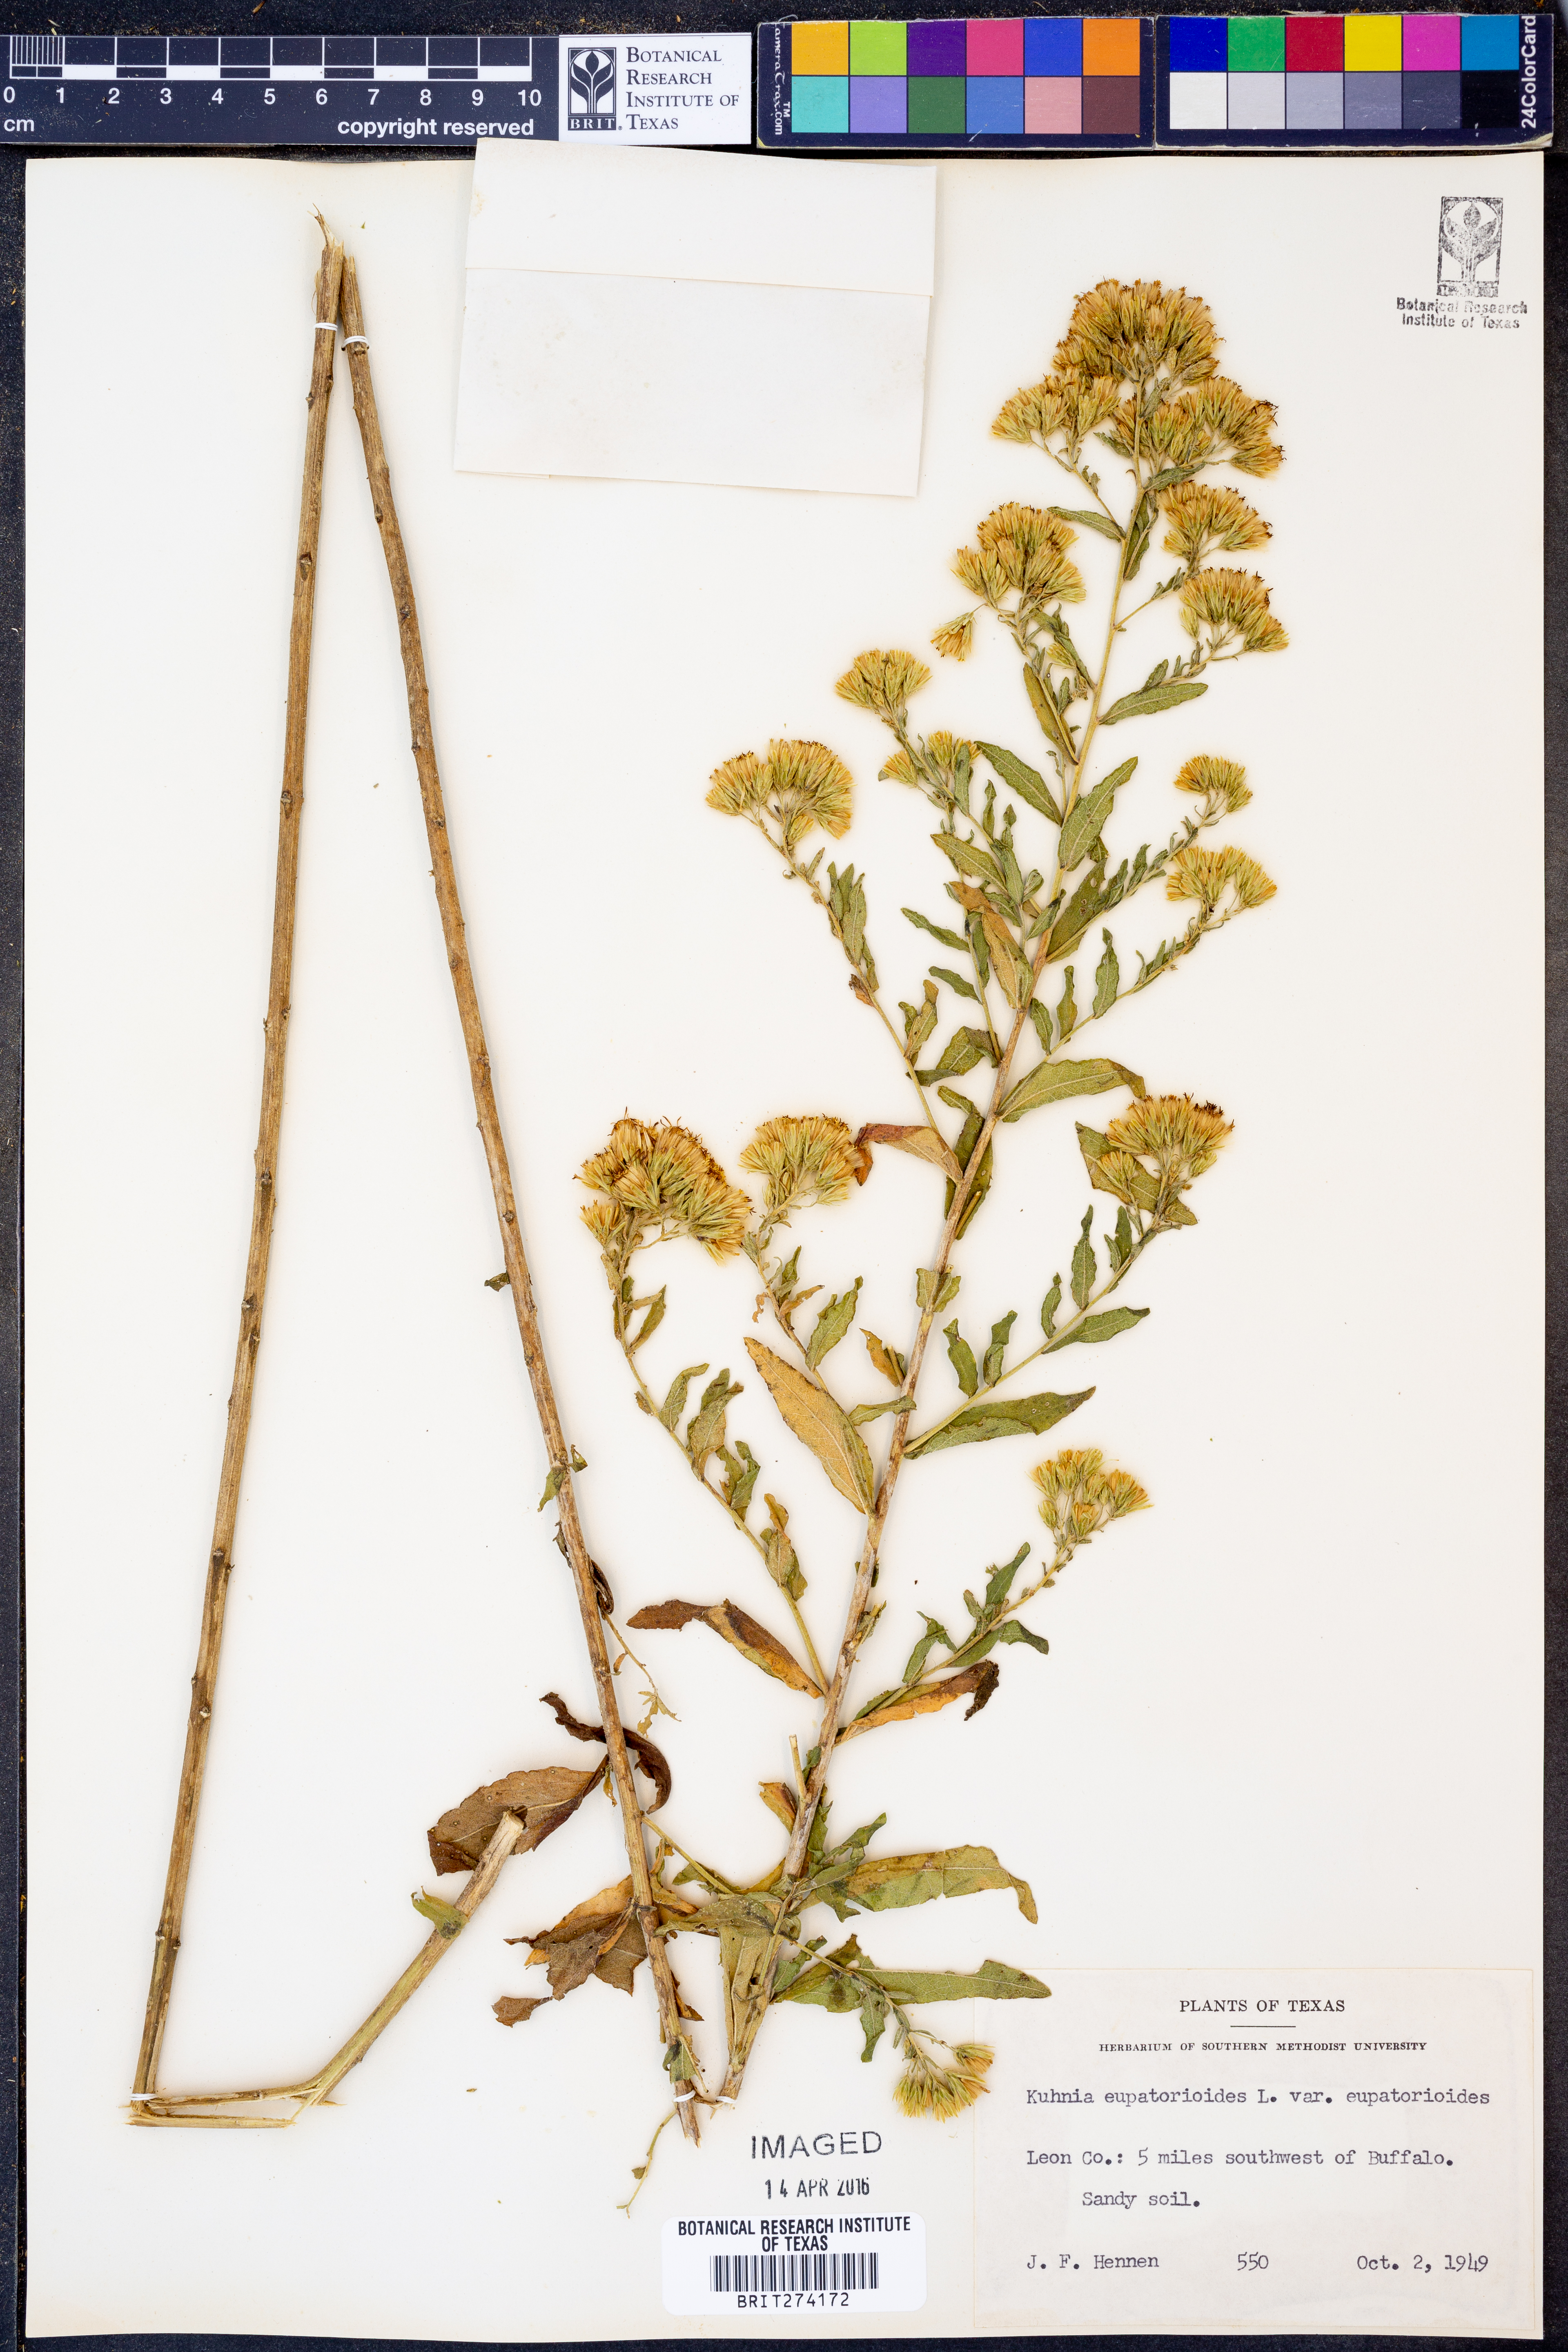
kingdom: Plantae
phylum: Tracheophyta
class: Magnoliopsida
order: Asterales
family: Asteraceae
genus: Brickellia
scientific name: Brickellia eupatorioides
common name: False boneset
